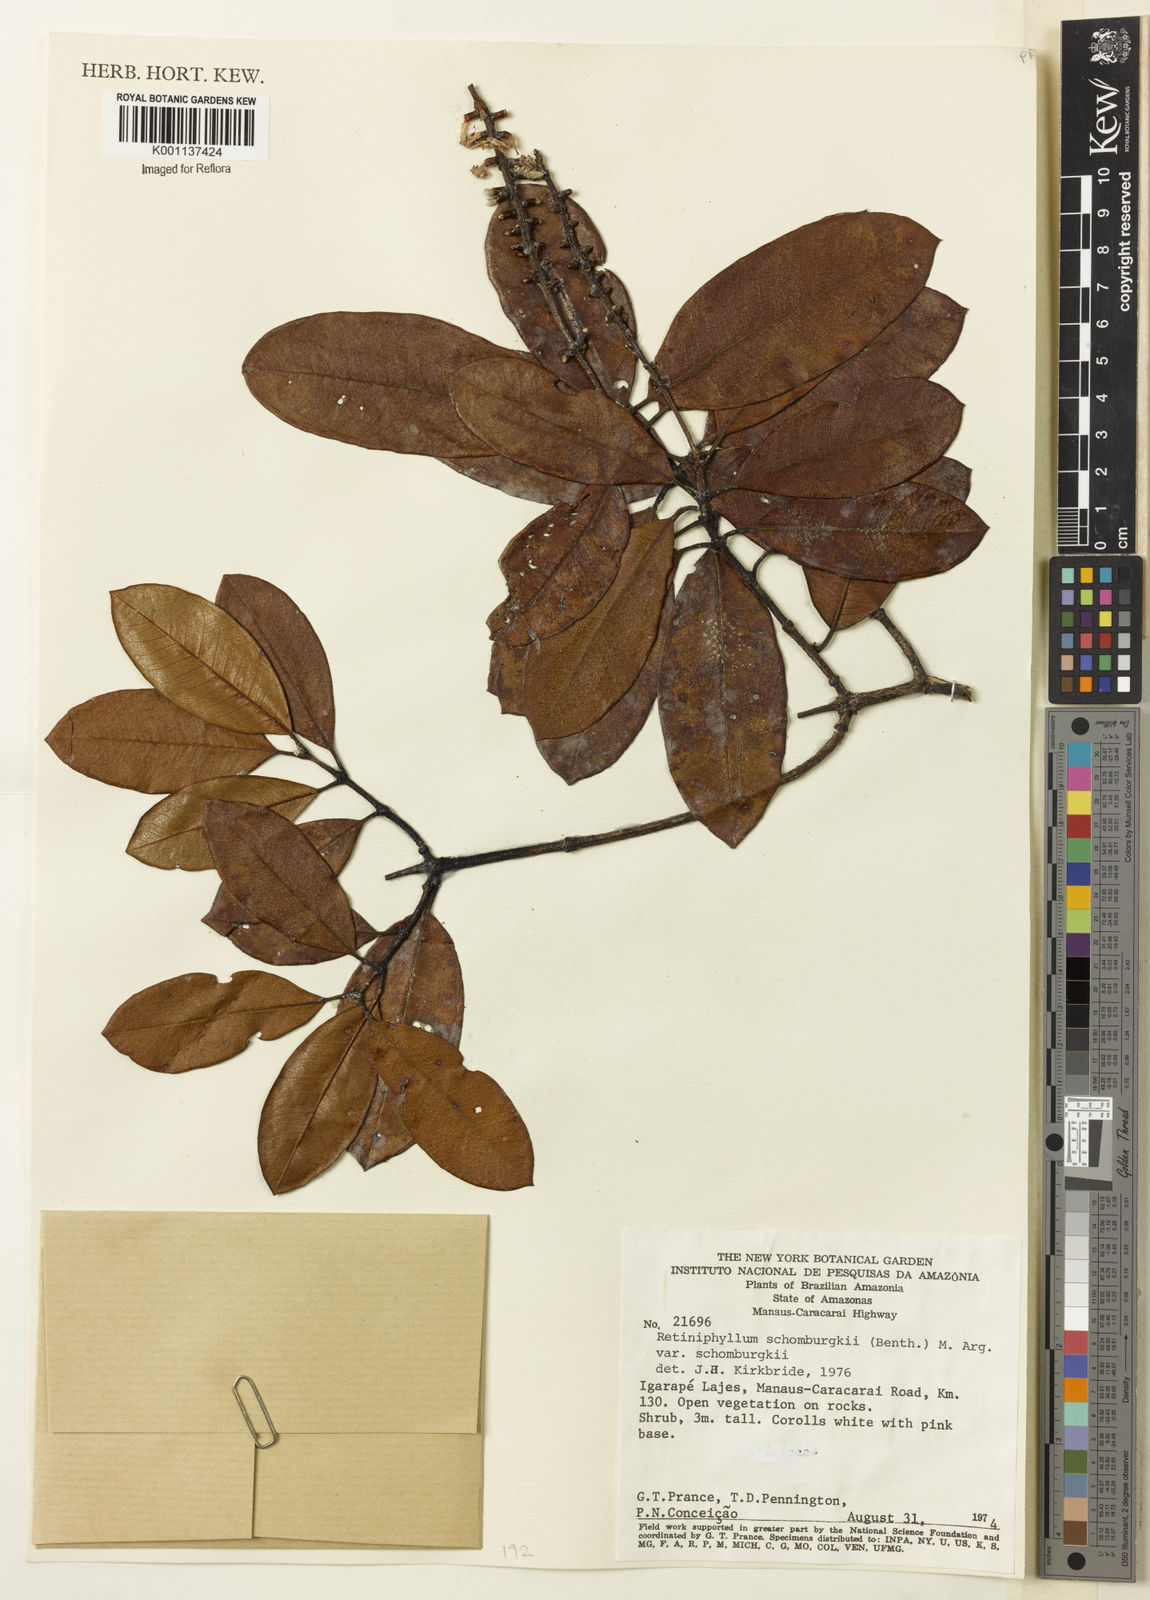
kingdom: Plantae
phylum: Tracheophyta
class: Magnoliopsida
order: Gentianales
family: Rubiaceae
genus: Retiniphyllum
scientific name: Retiniphyllum
